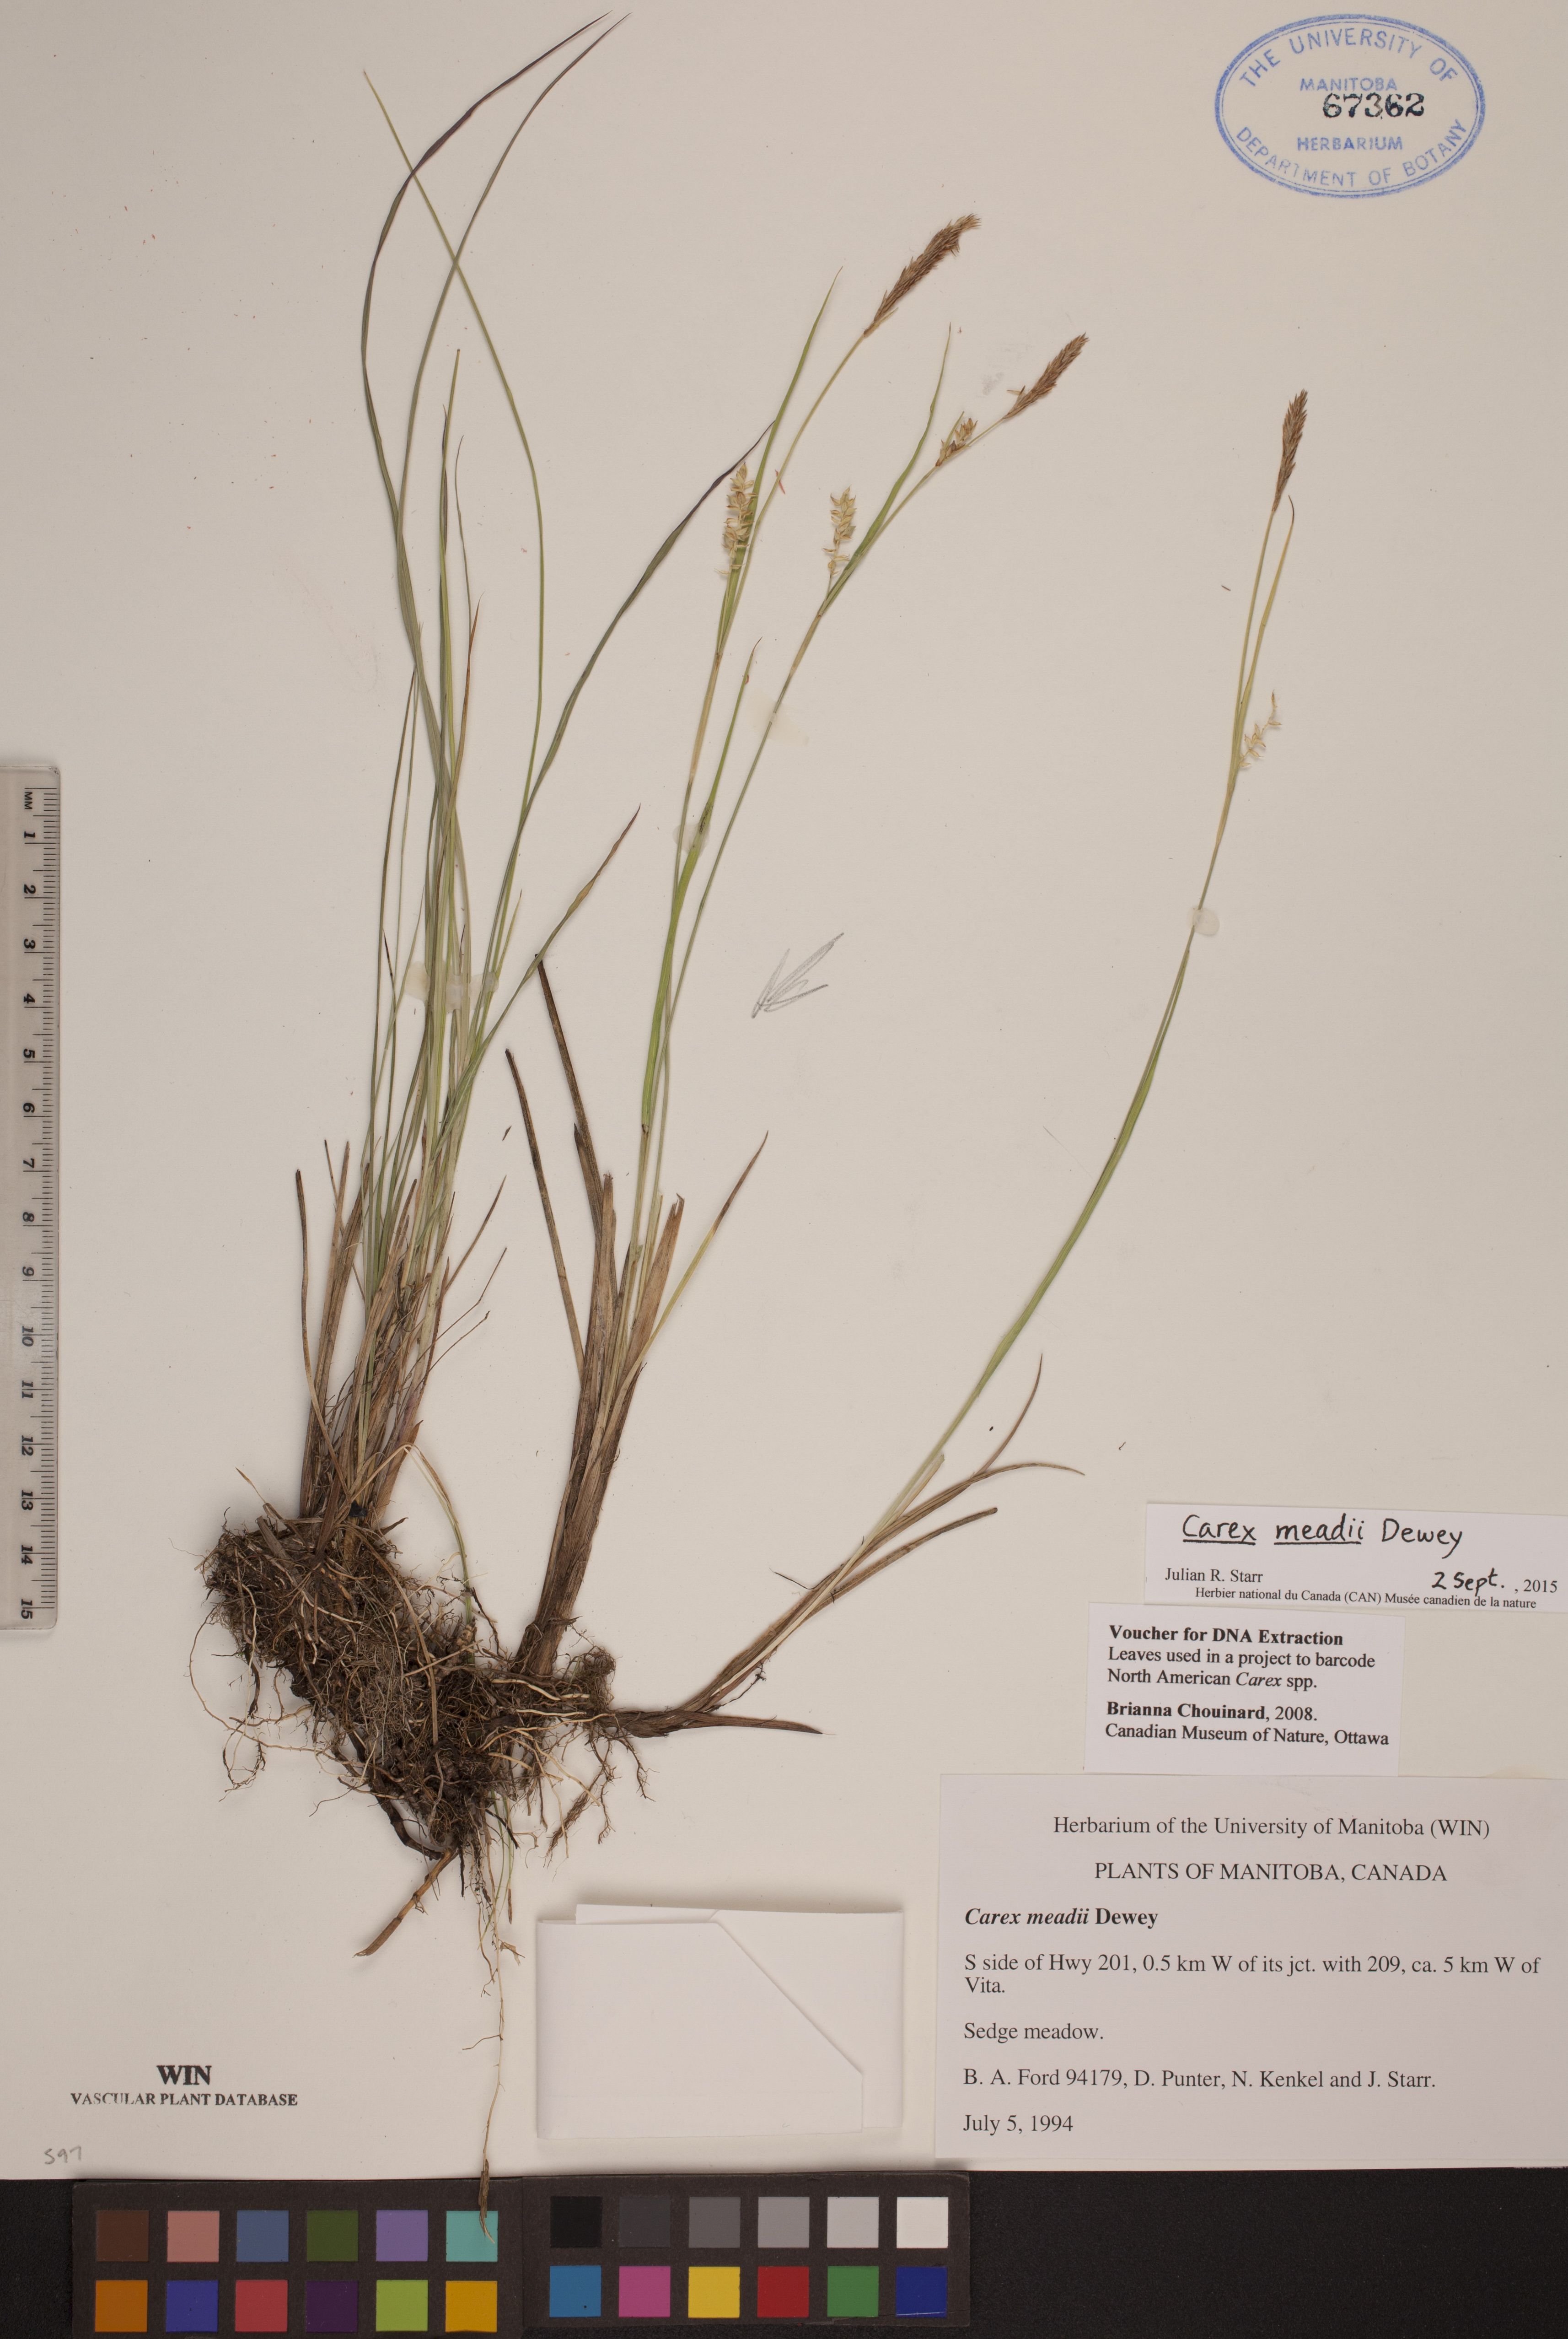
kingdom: Plantae
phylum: Tracheophyta
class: Liliopsida
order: Poales
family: Cyperaceae
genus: Carex
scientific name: Carex meadii
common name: Mead's sedge
